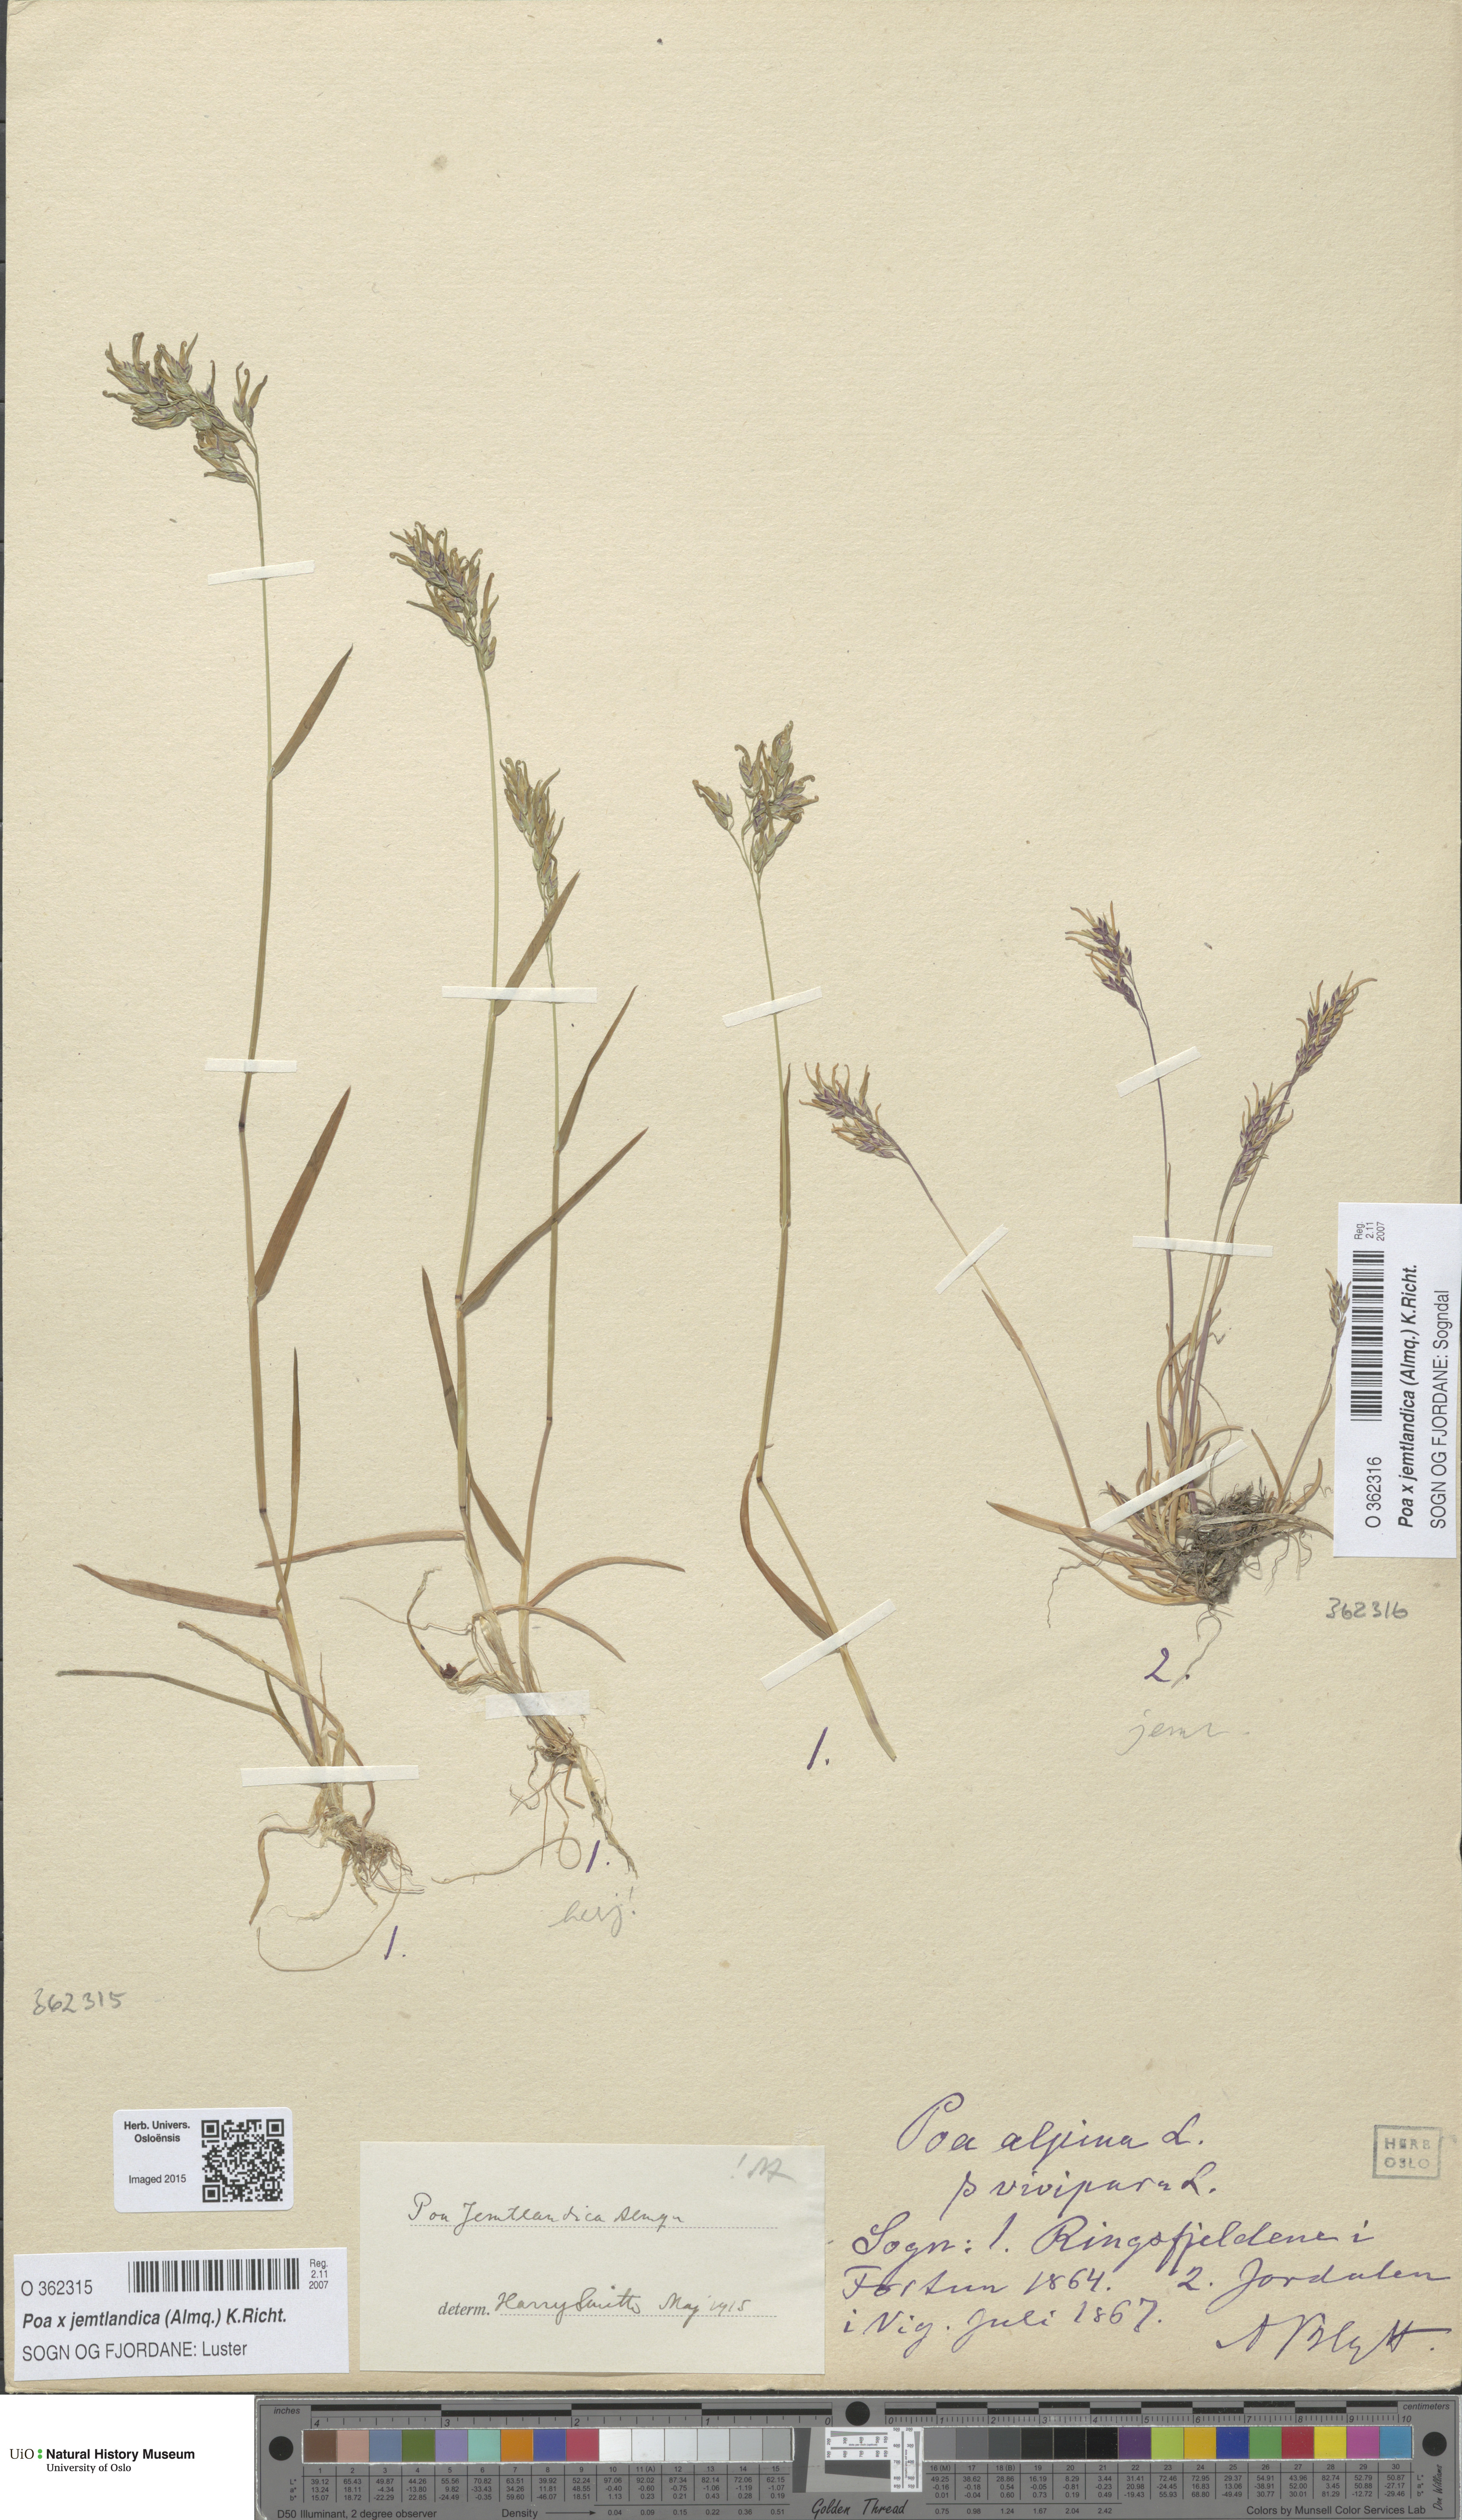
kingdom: Plantae
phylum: Tracheophyta
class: Liliopsida
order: Poales
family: Poaceae
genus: Poa
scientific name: Poa jemtlandica
